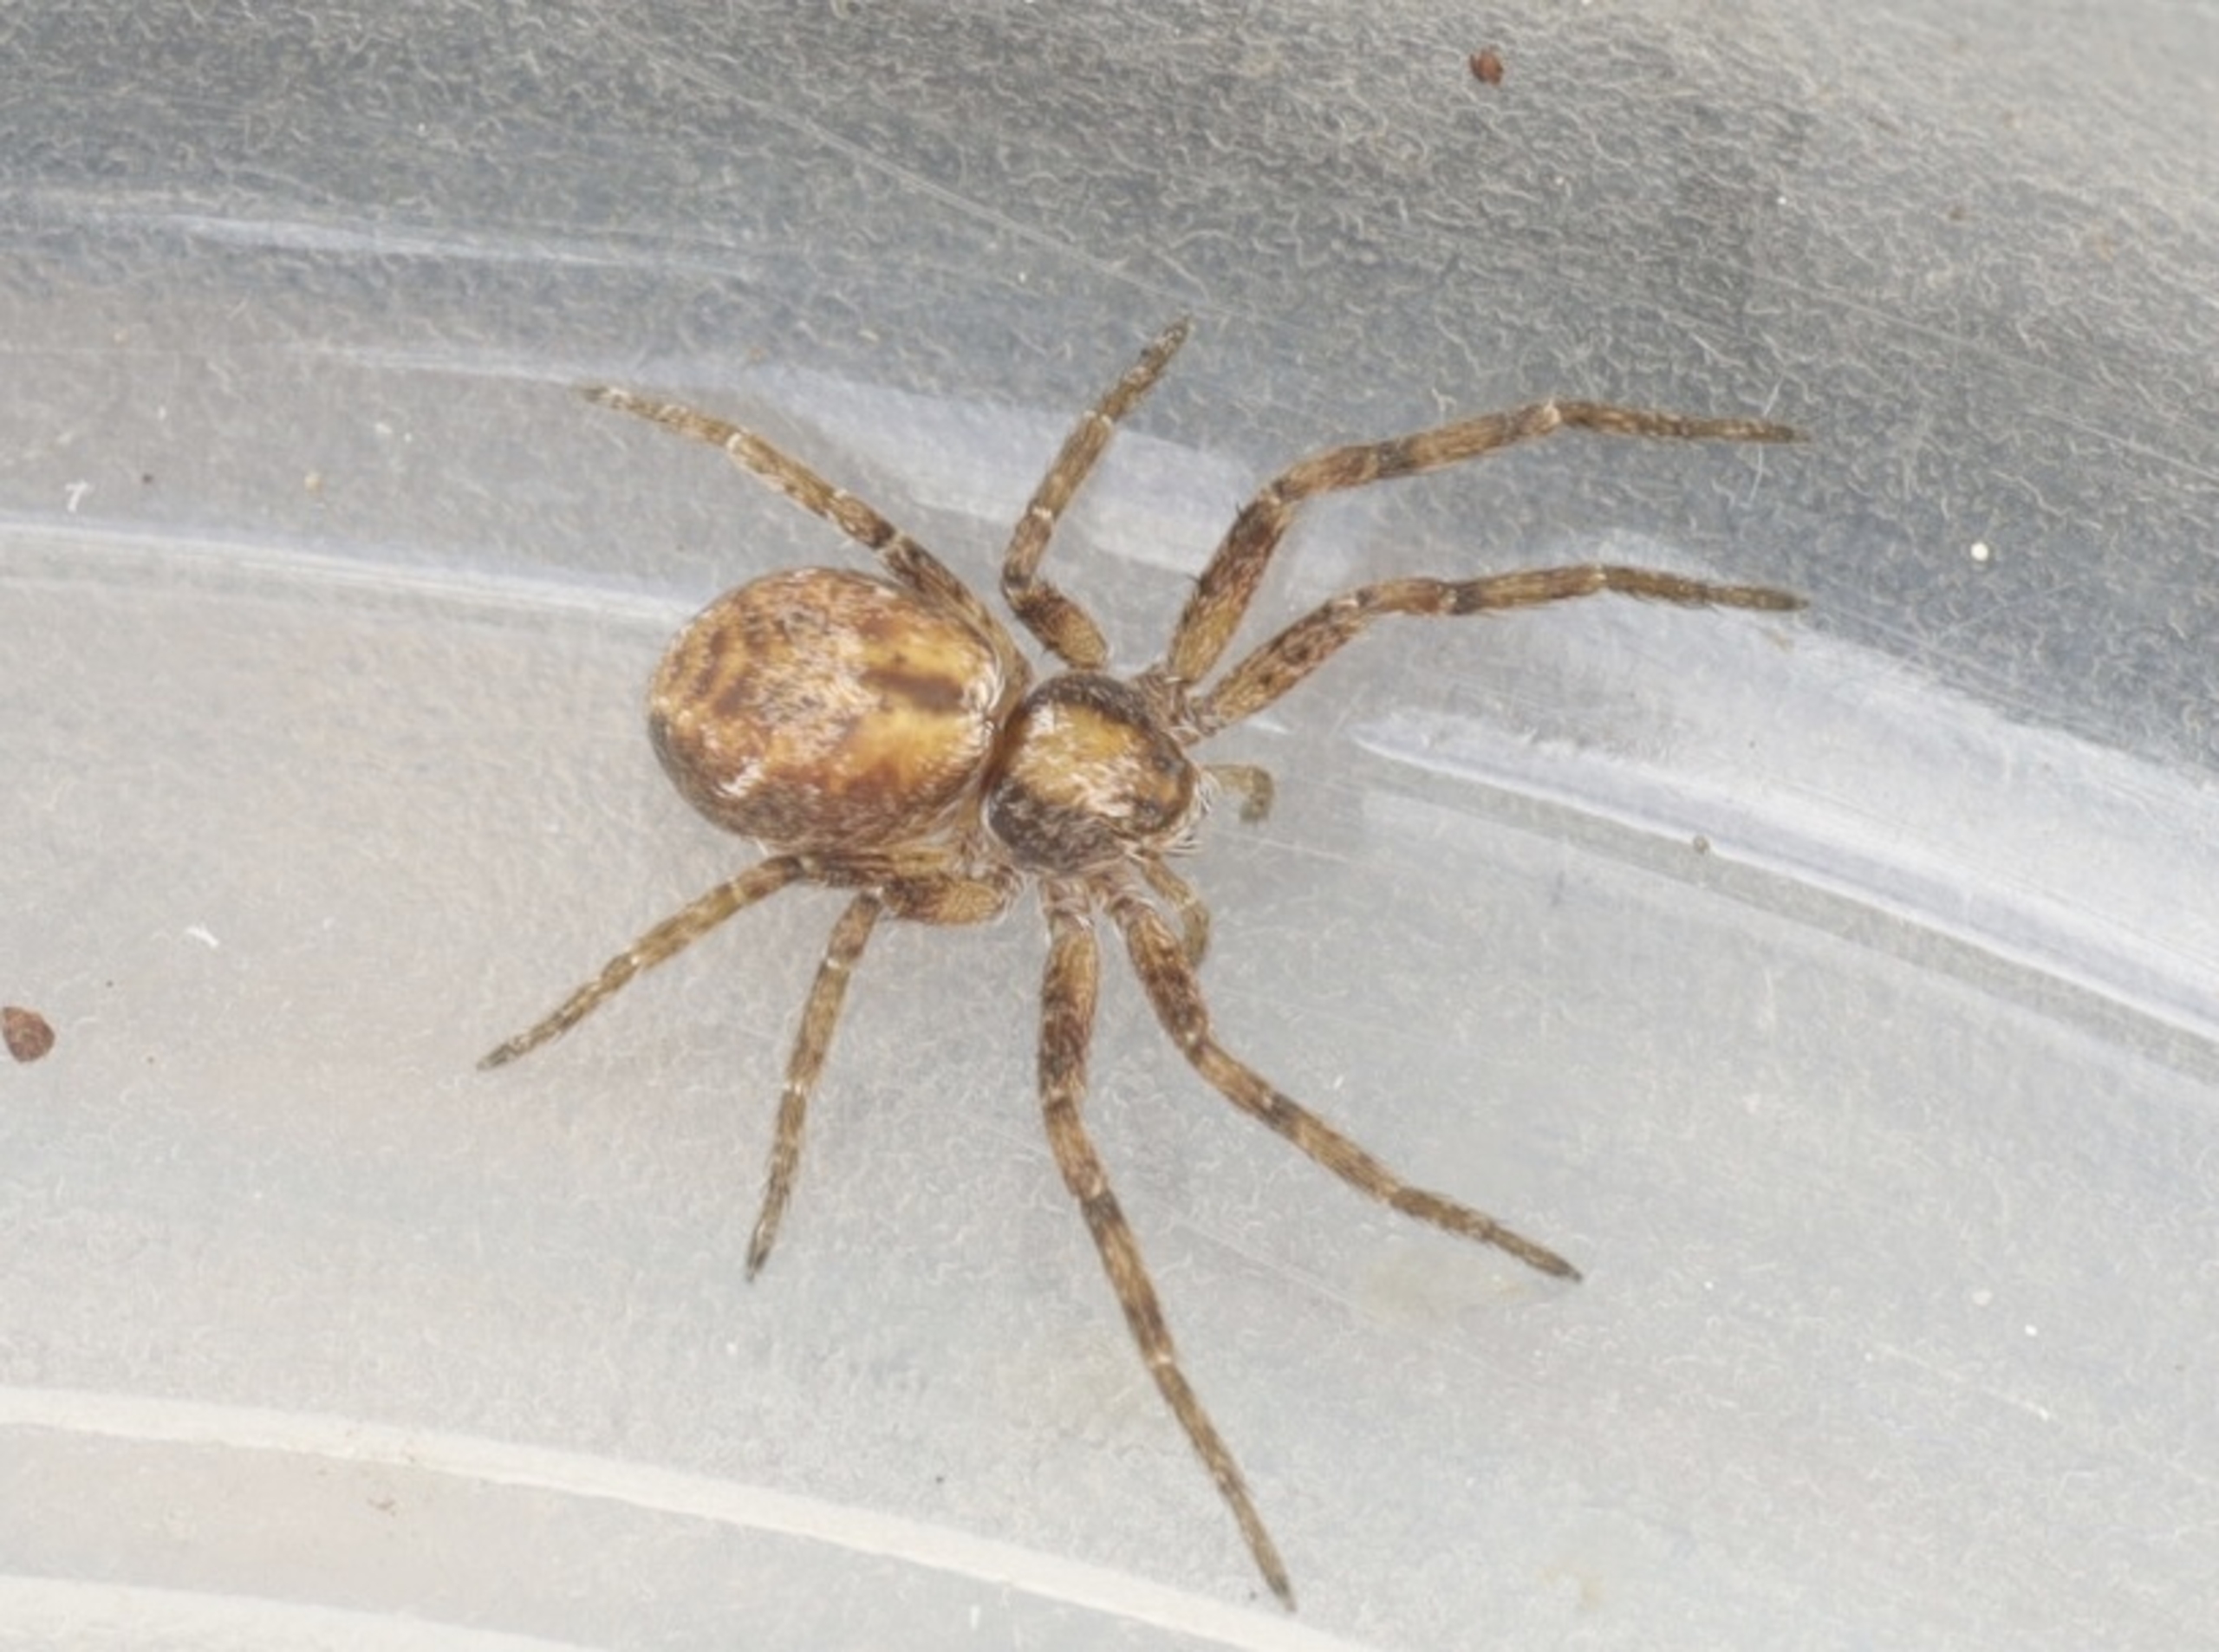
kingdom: Animalia
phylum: Arthropoda
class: Arachnida
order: Araneae
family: Philodromidae
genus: Philodromus
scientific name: Philodromus
